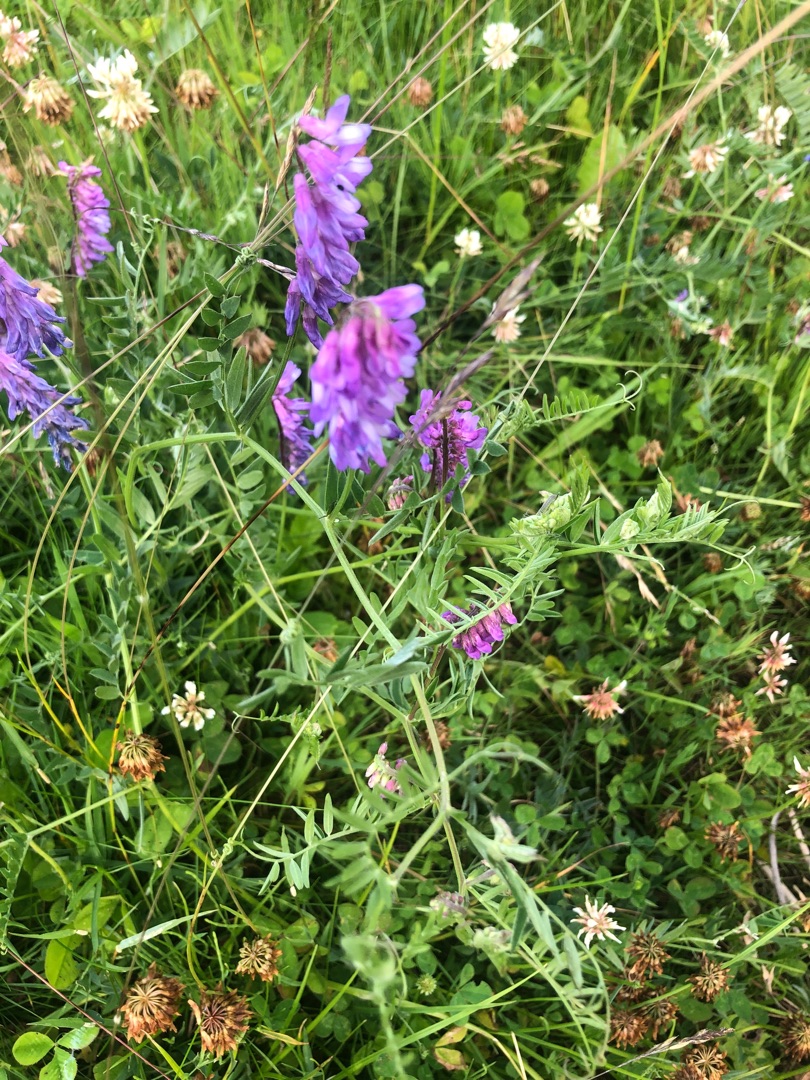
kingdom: Plantae
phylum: Tracheophyta
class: Magnoliopsida
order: Fabales
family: Fabaceae
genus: Vicia
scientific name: Vicia cracca
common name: Muse-vikke
